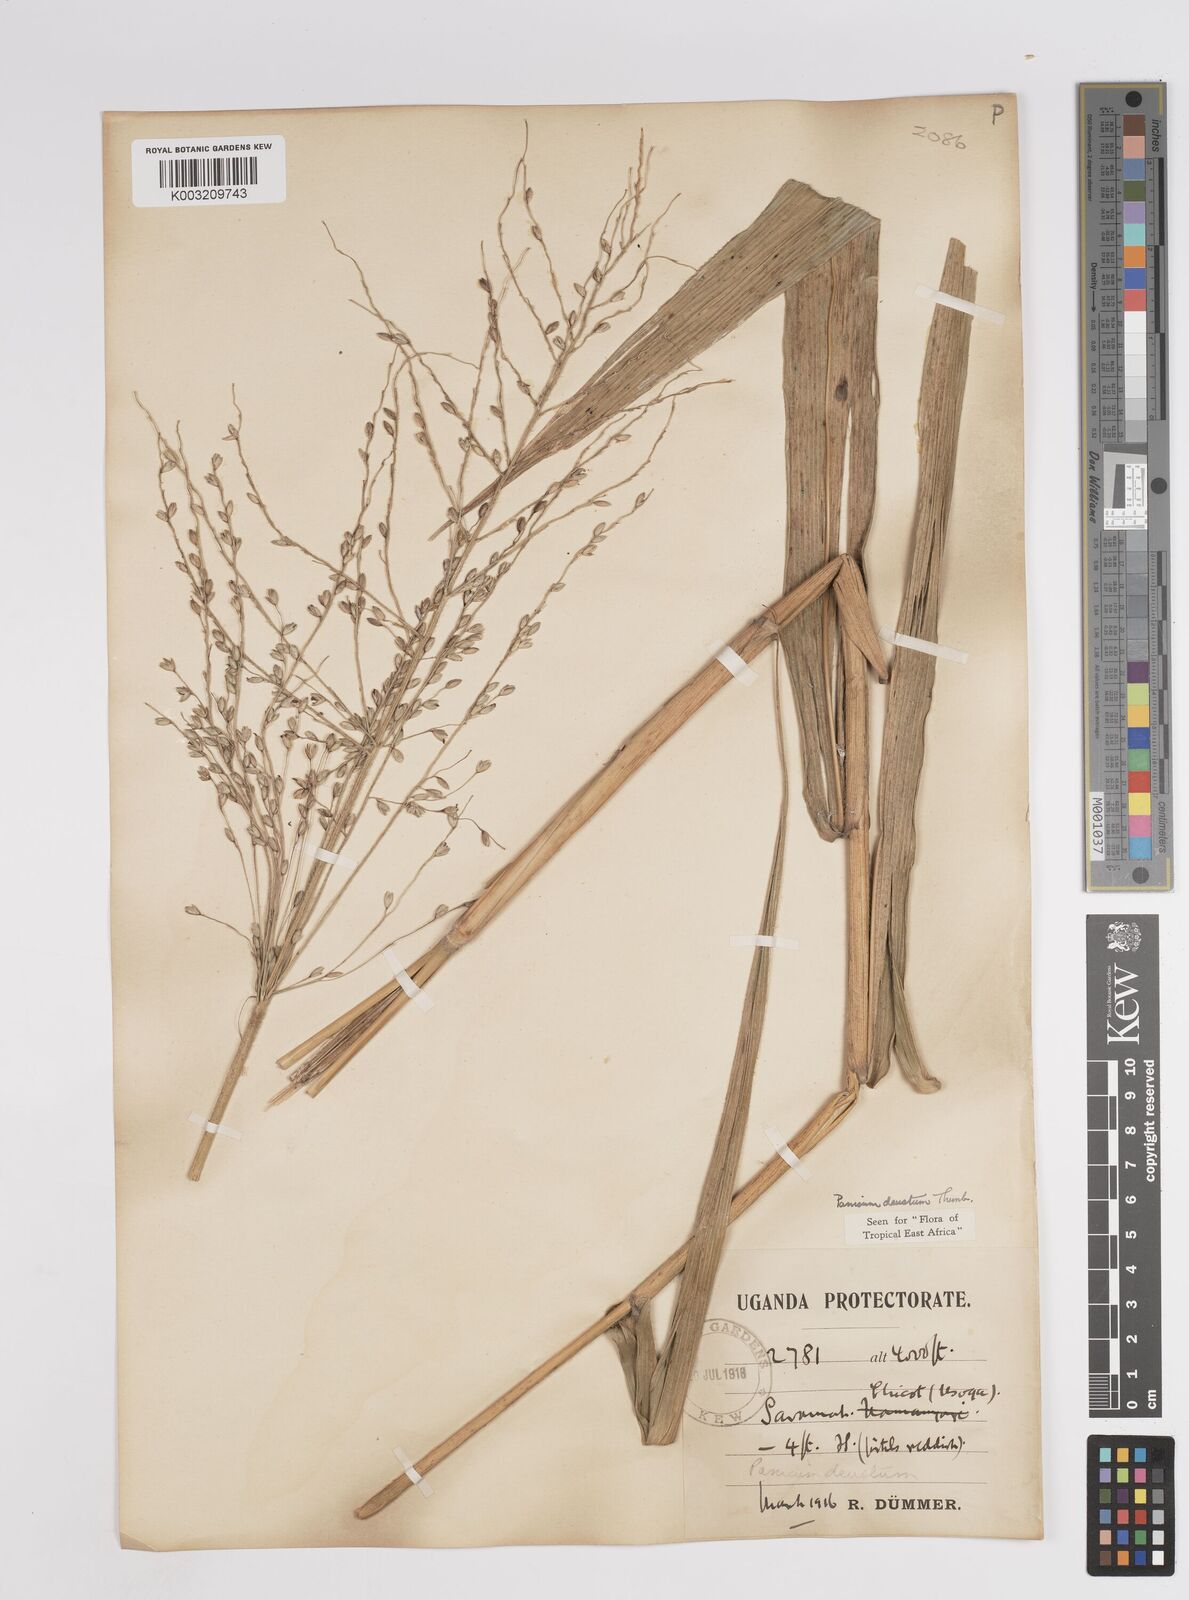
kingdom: Plantae
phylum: Tracheophyta
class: Liliopsida
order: Poales
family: Poaceae
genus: Panicum
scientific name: Panicum
